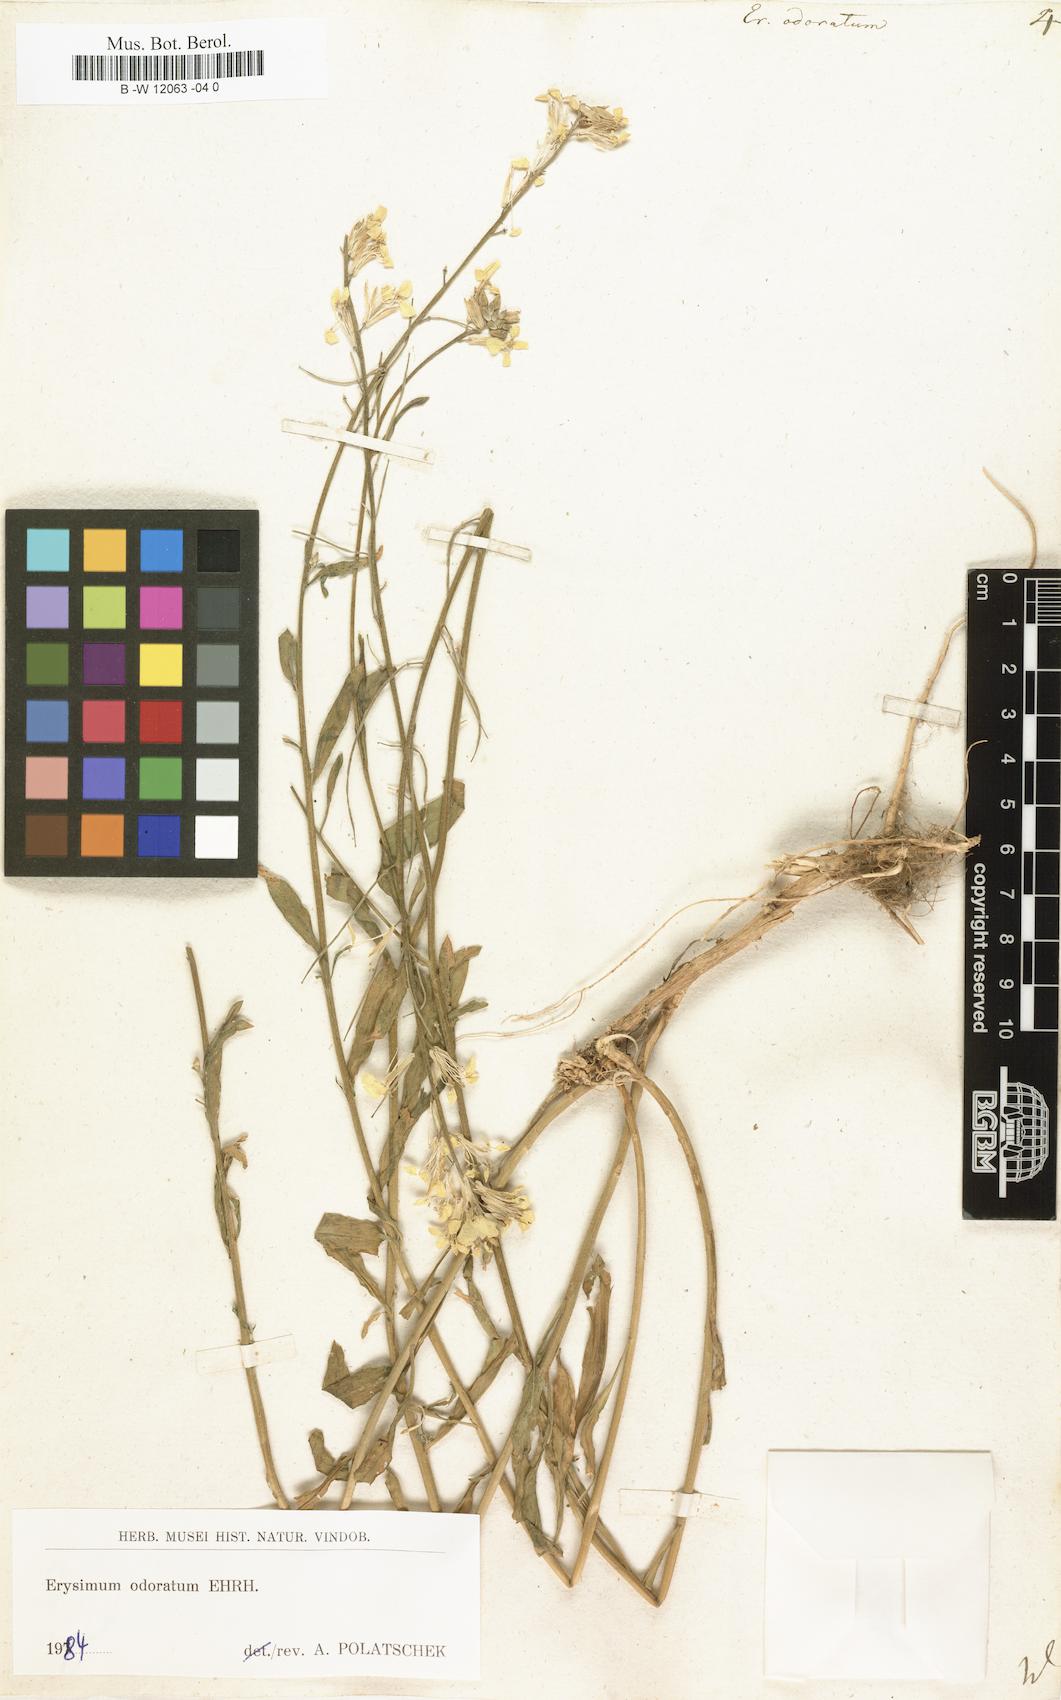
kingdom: Plantae
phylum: Tracheophyta
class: Magnoliopsida
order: Brassicales
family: Brassicaceae
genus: Erysimum
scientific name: Erysimum odoratum
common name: Smelly wallflower
